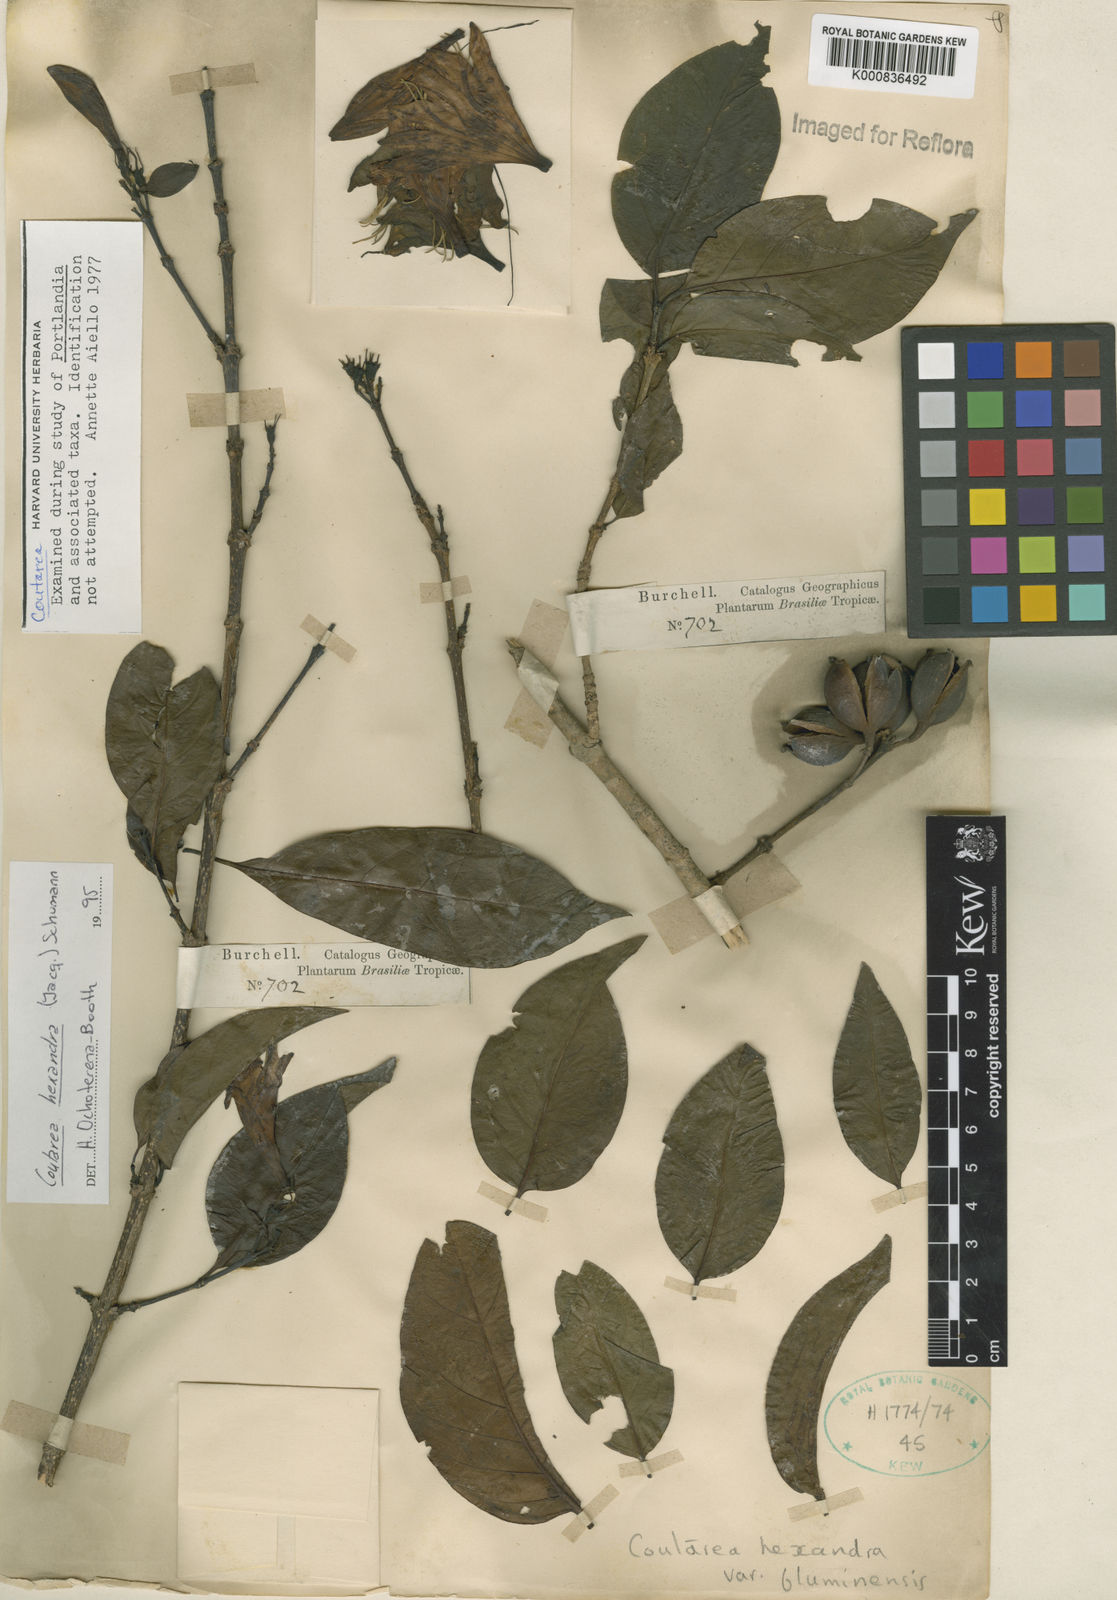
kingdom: Plantae
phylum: Tracheophyta
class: Magnoliopsida
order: Gentianales
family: Rubiaceae
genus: Coutarea
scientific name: Coutarea hexandra
